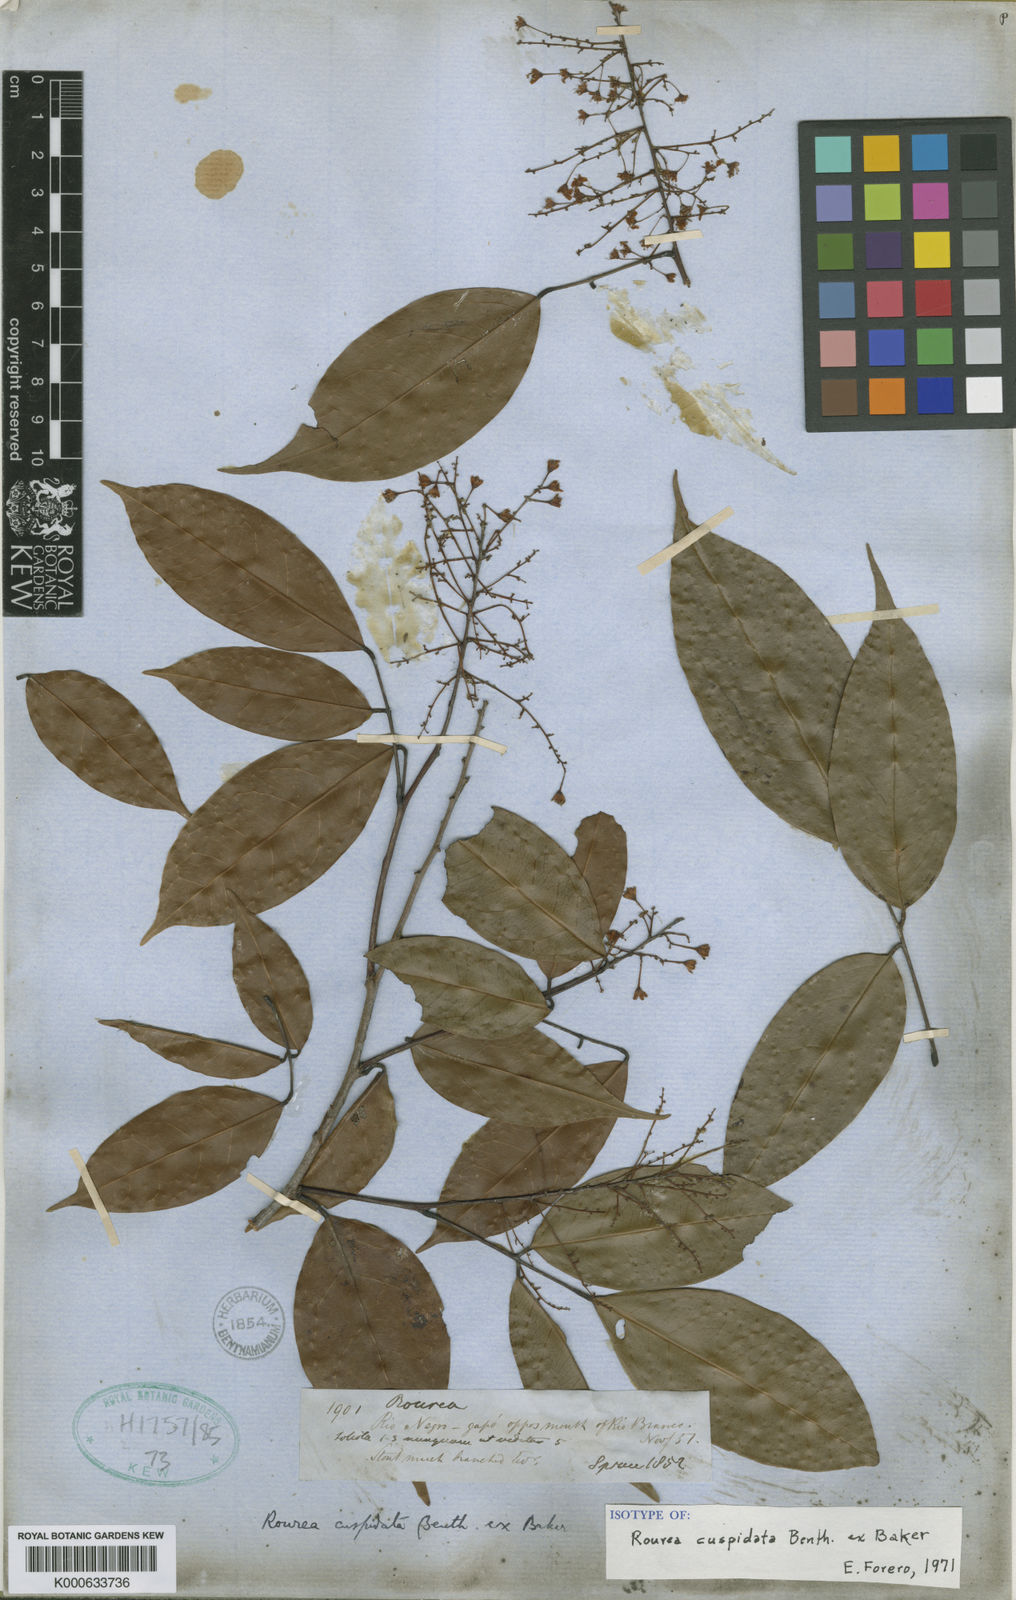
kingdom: Plantae
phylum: Tracheophyta
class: Magnoliopsida
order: Oxalidales
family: Connaraceae
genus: Rourea
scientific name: Rourea cuspidata
